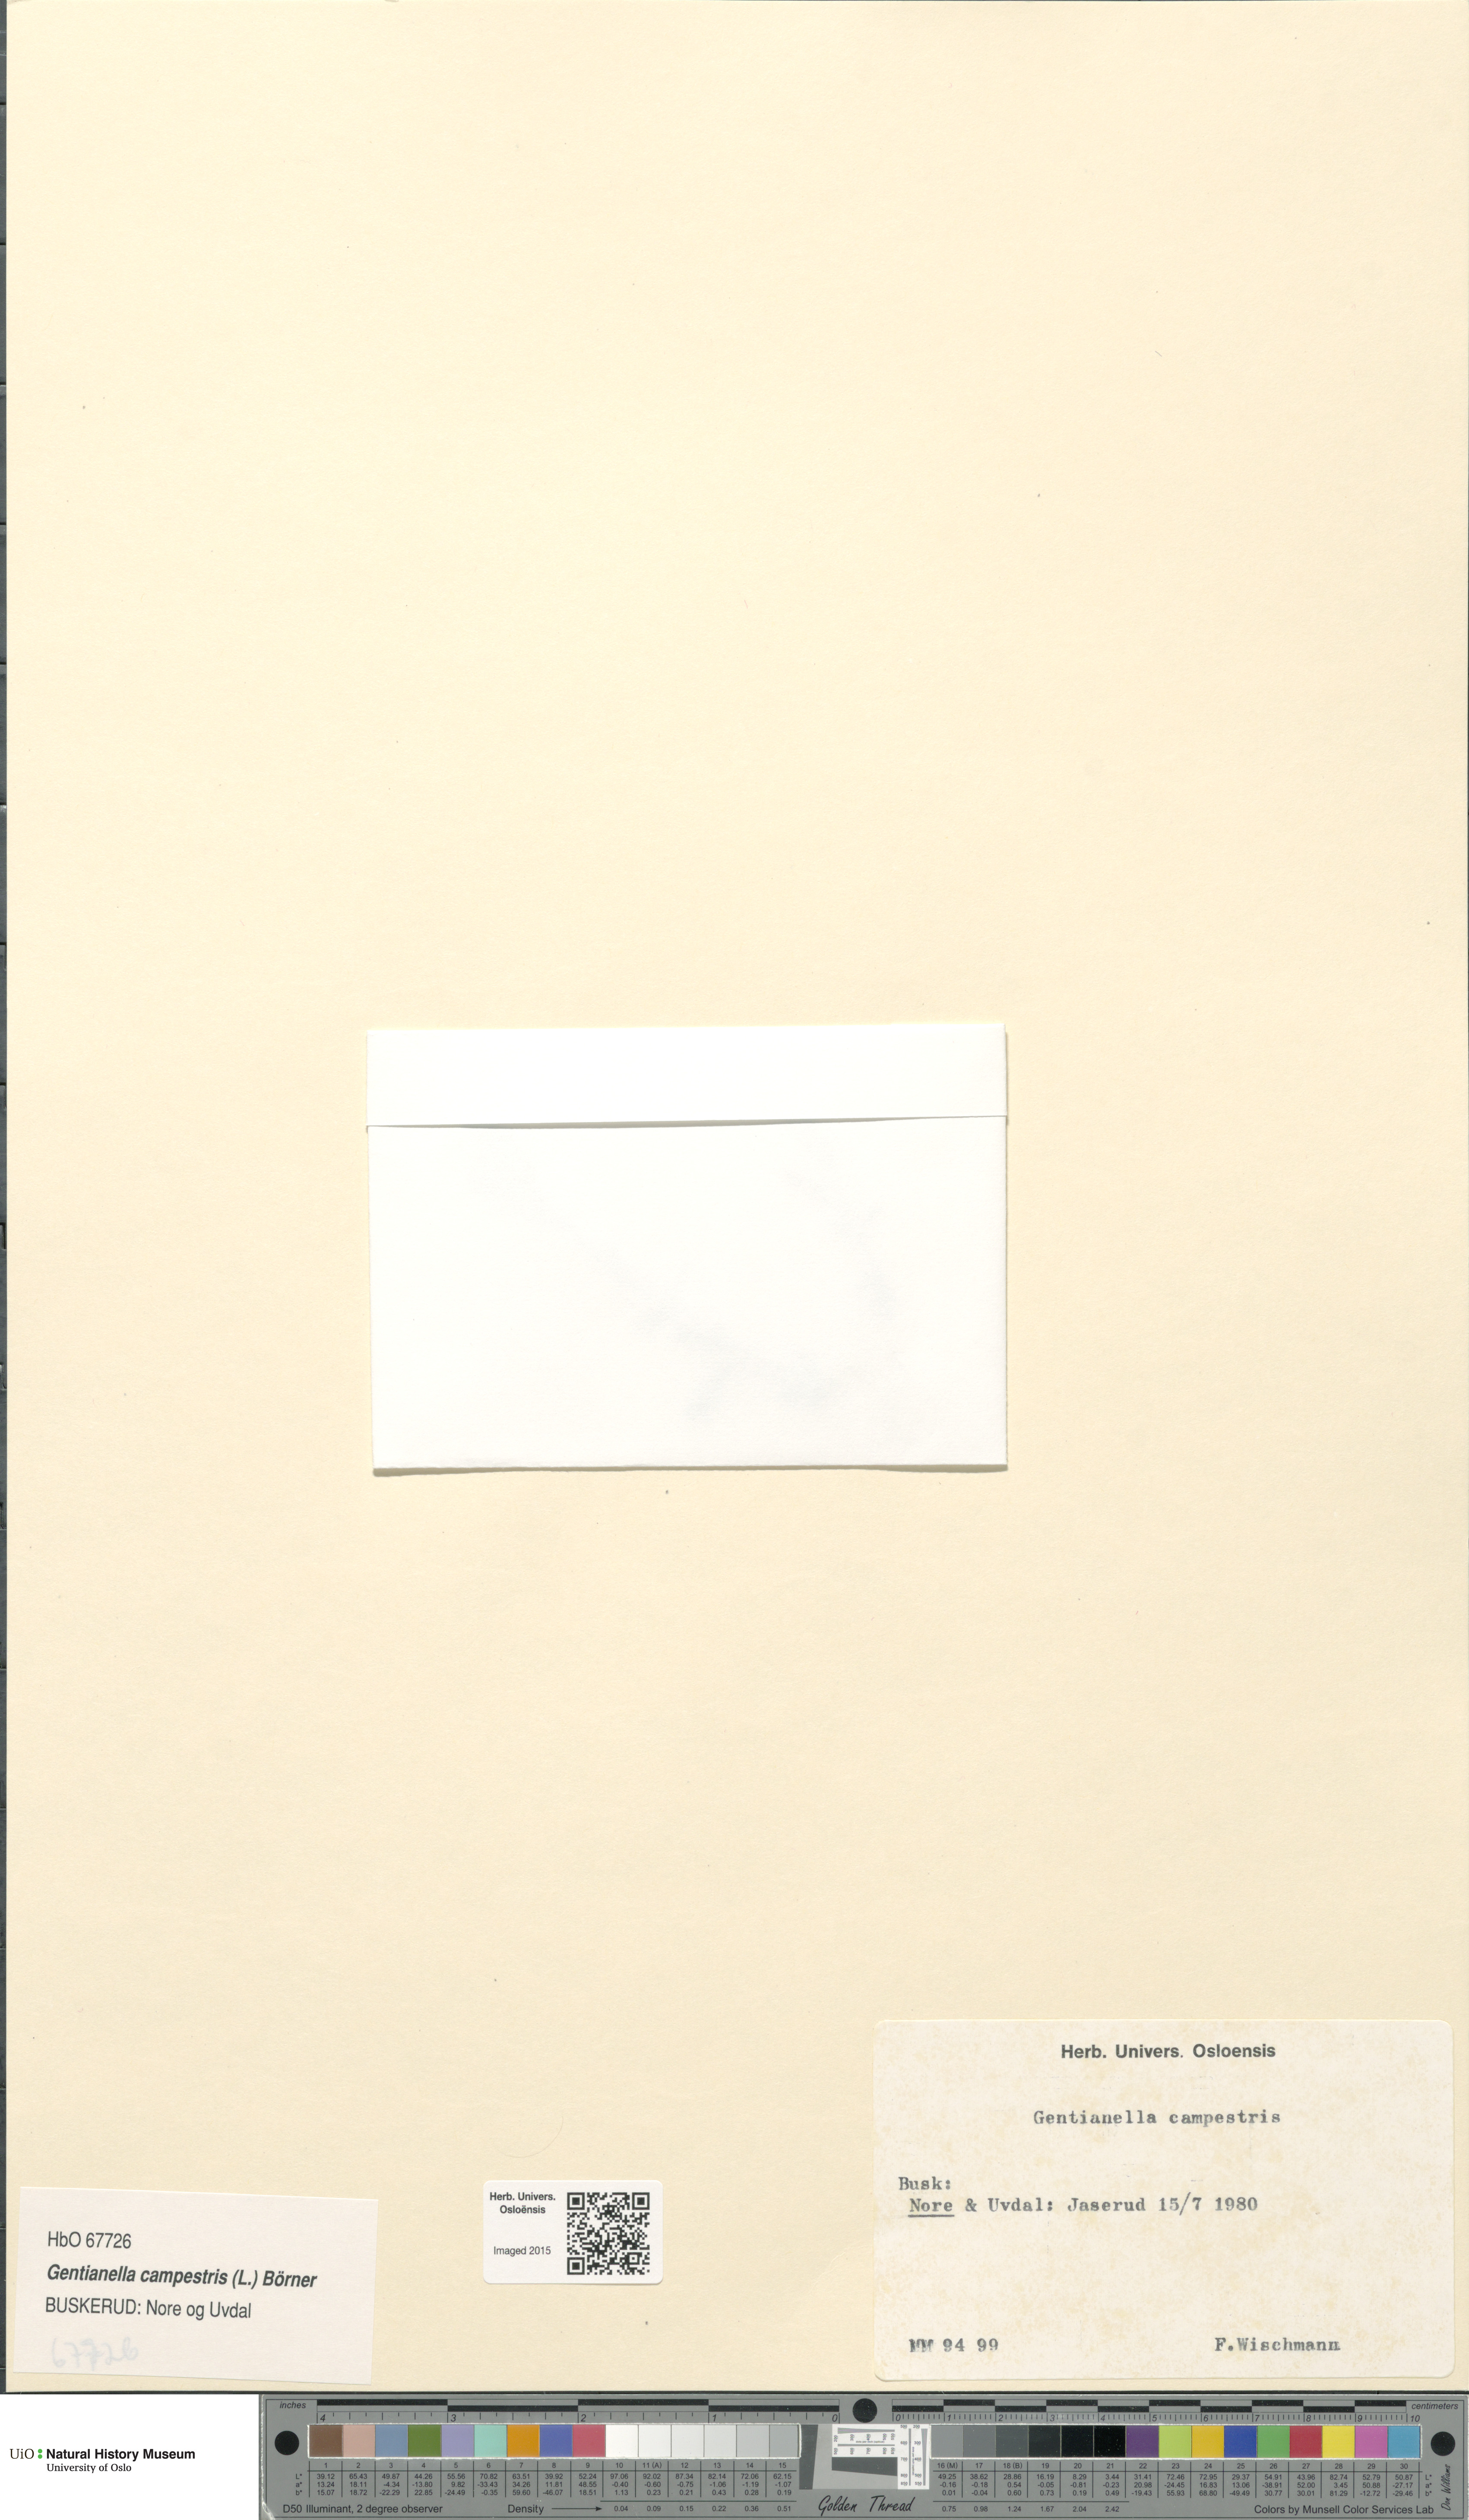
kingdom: Plantae
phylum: Tracheophyta
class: Magnoliopsida
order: Gentianales
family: Gentianaceae
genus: Gentianella
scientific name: Gentianella campestris
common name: Field gentian
